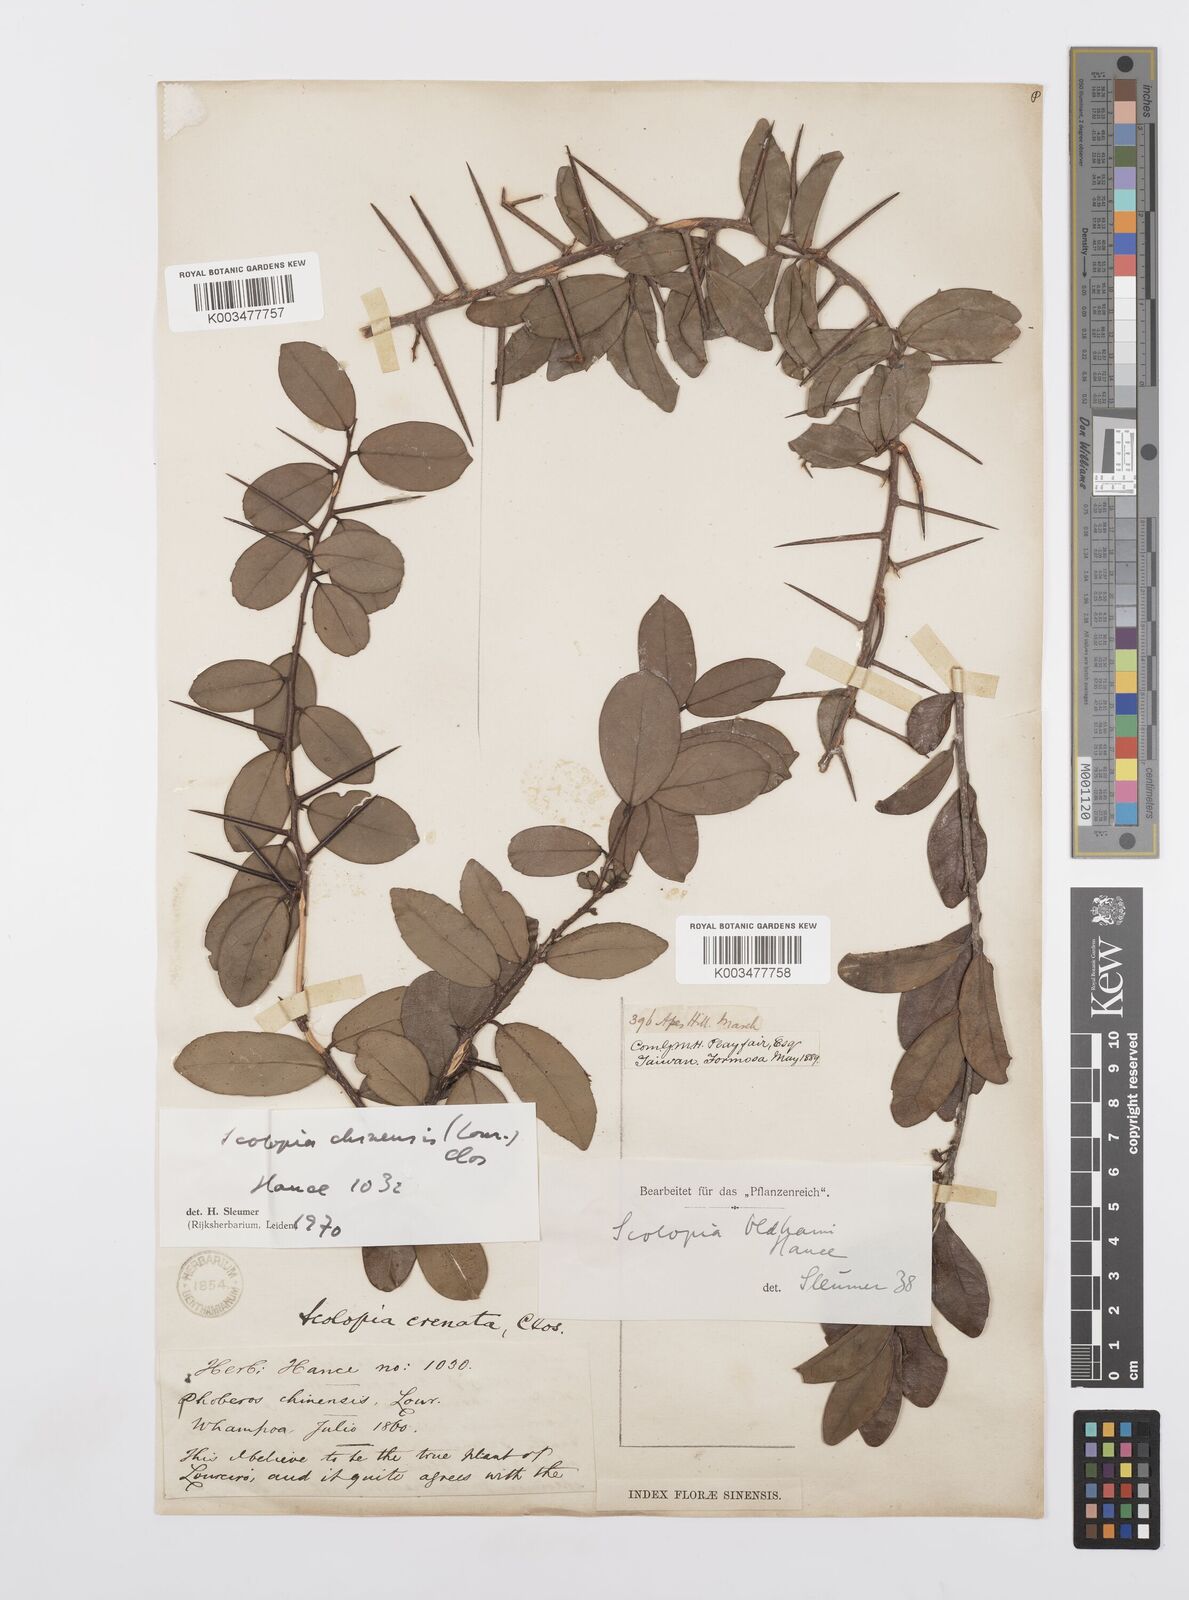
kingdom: Plantae
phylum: Tracheophyta
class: Magnoliopsida
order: Malpighiales
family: Salicaceae
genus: Scolopia
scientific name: Scolopia chinensis
